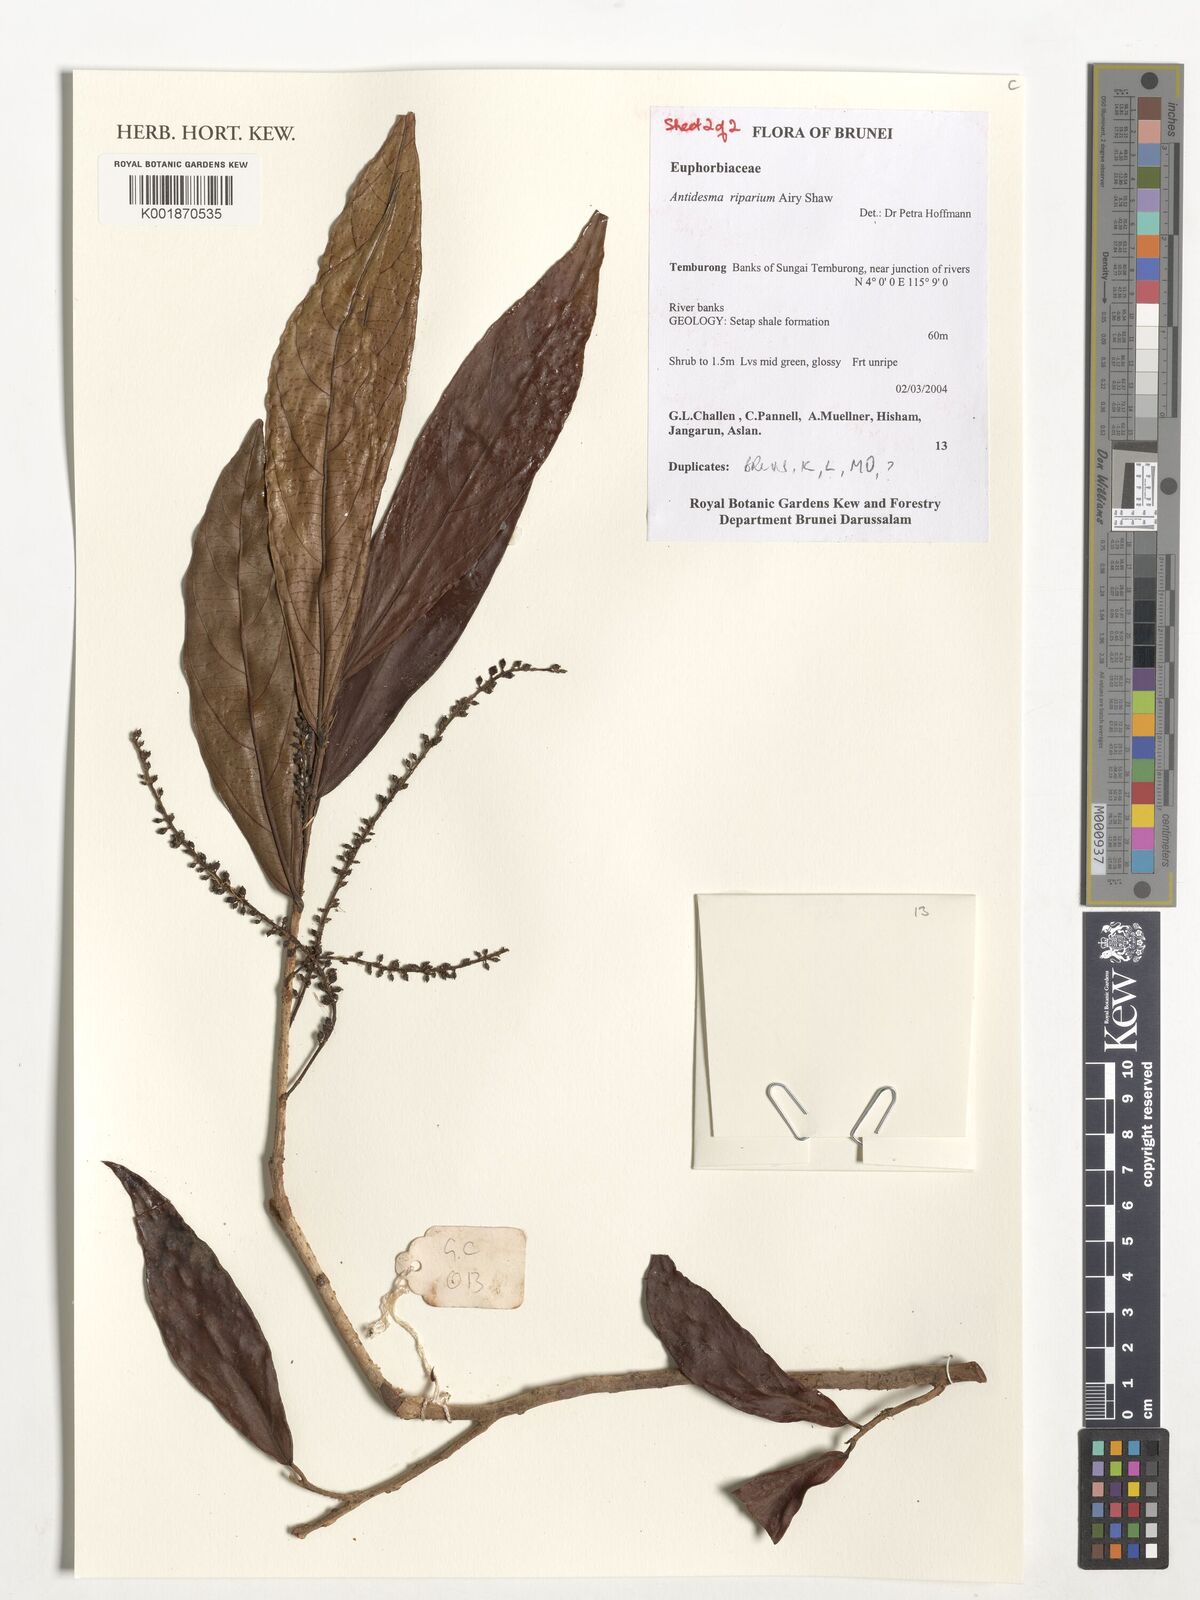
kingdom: Plantae
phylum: Tracheophyta
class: Magnoliopsida
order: Malpighiales
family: Phyllanthaceae
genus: Antidesma
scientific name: Antidesma riparium
